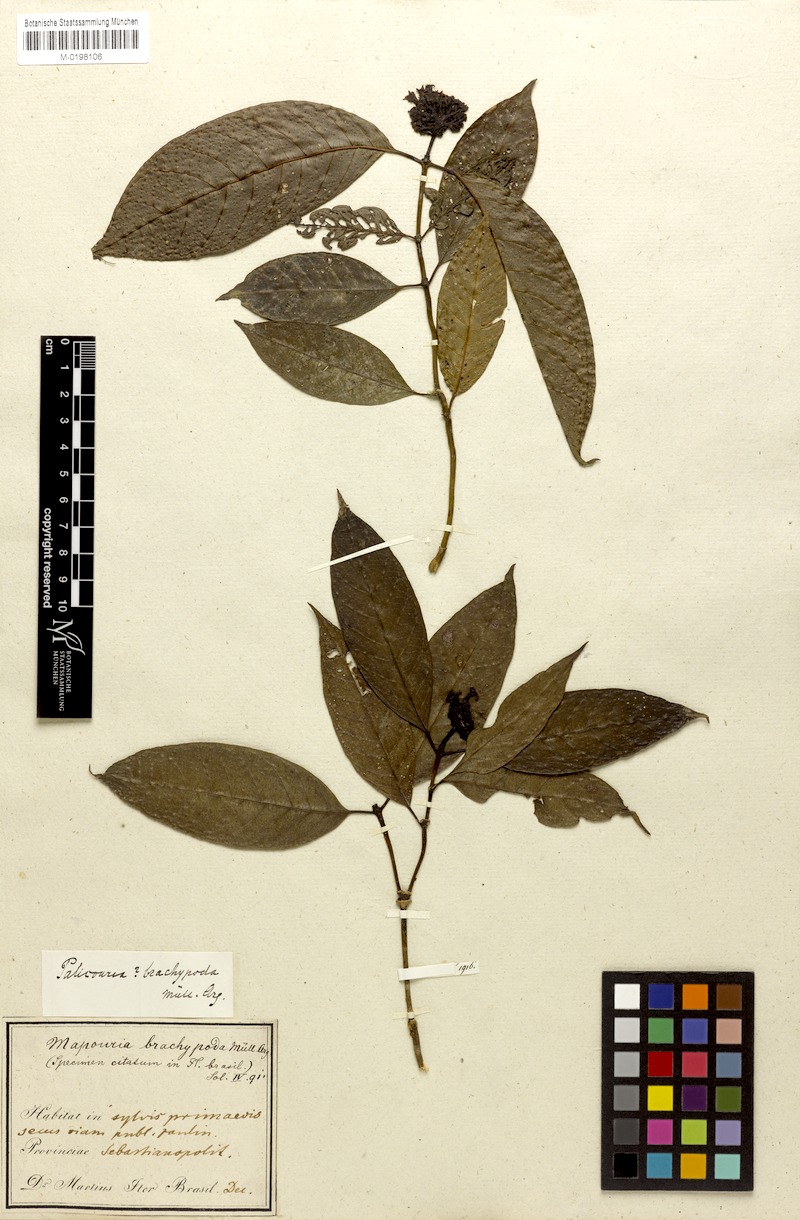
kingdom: Plantae
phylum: Tracheophyta
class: Magnoliopsida
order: Gentianales
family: Rubiaceae
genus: Psychotria
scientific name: Psychotria brachypoda
